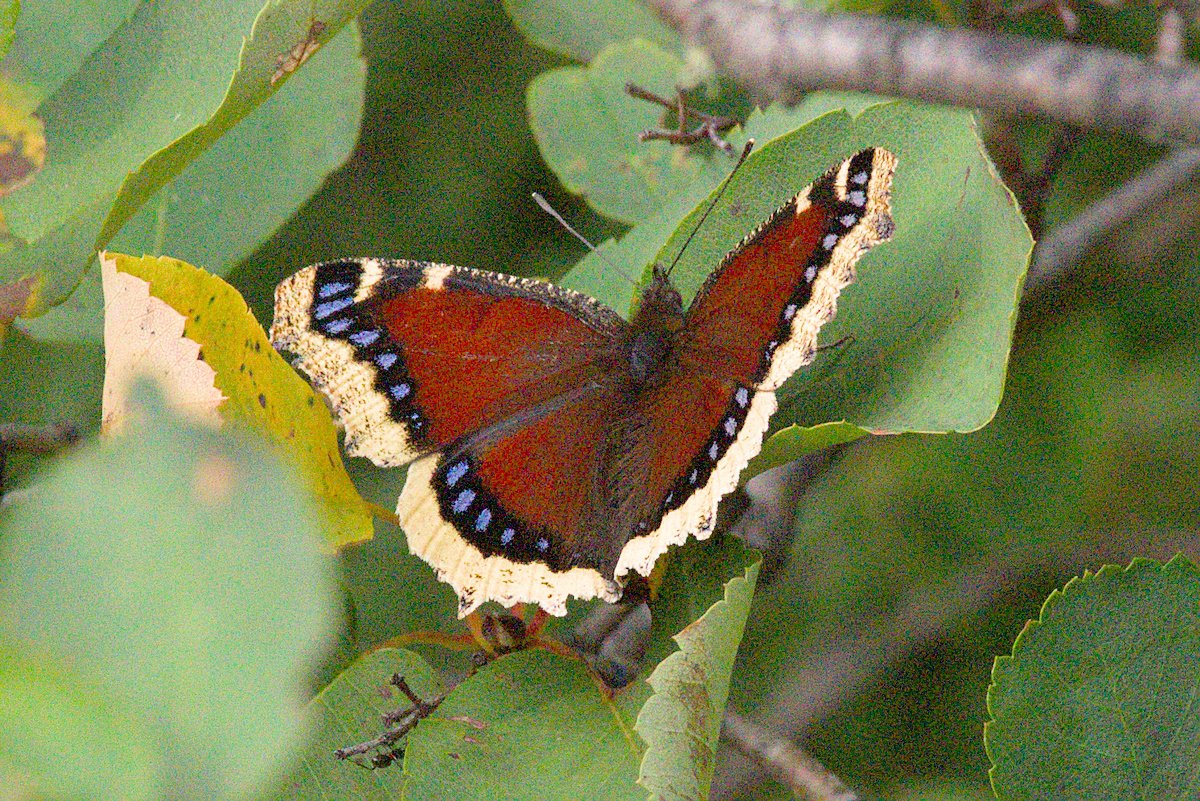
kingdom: Animalia
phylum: Arthropoda
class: Insecta
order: Lepidoptera
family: Nymphalidae
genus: Nymphalis
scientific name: Nymphalis antiopa
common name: Mourning Cloak
